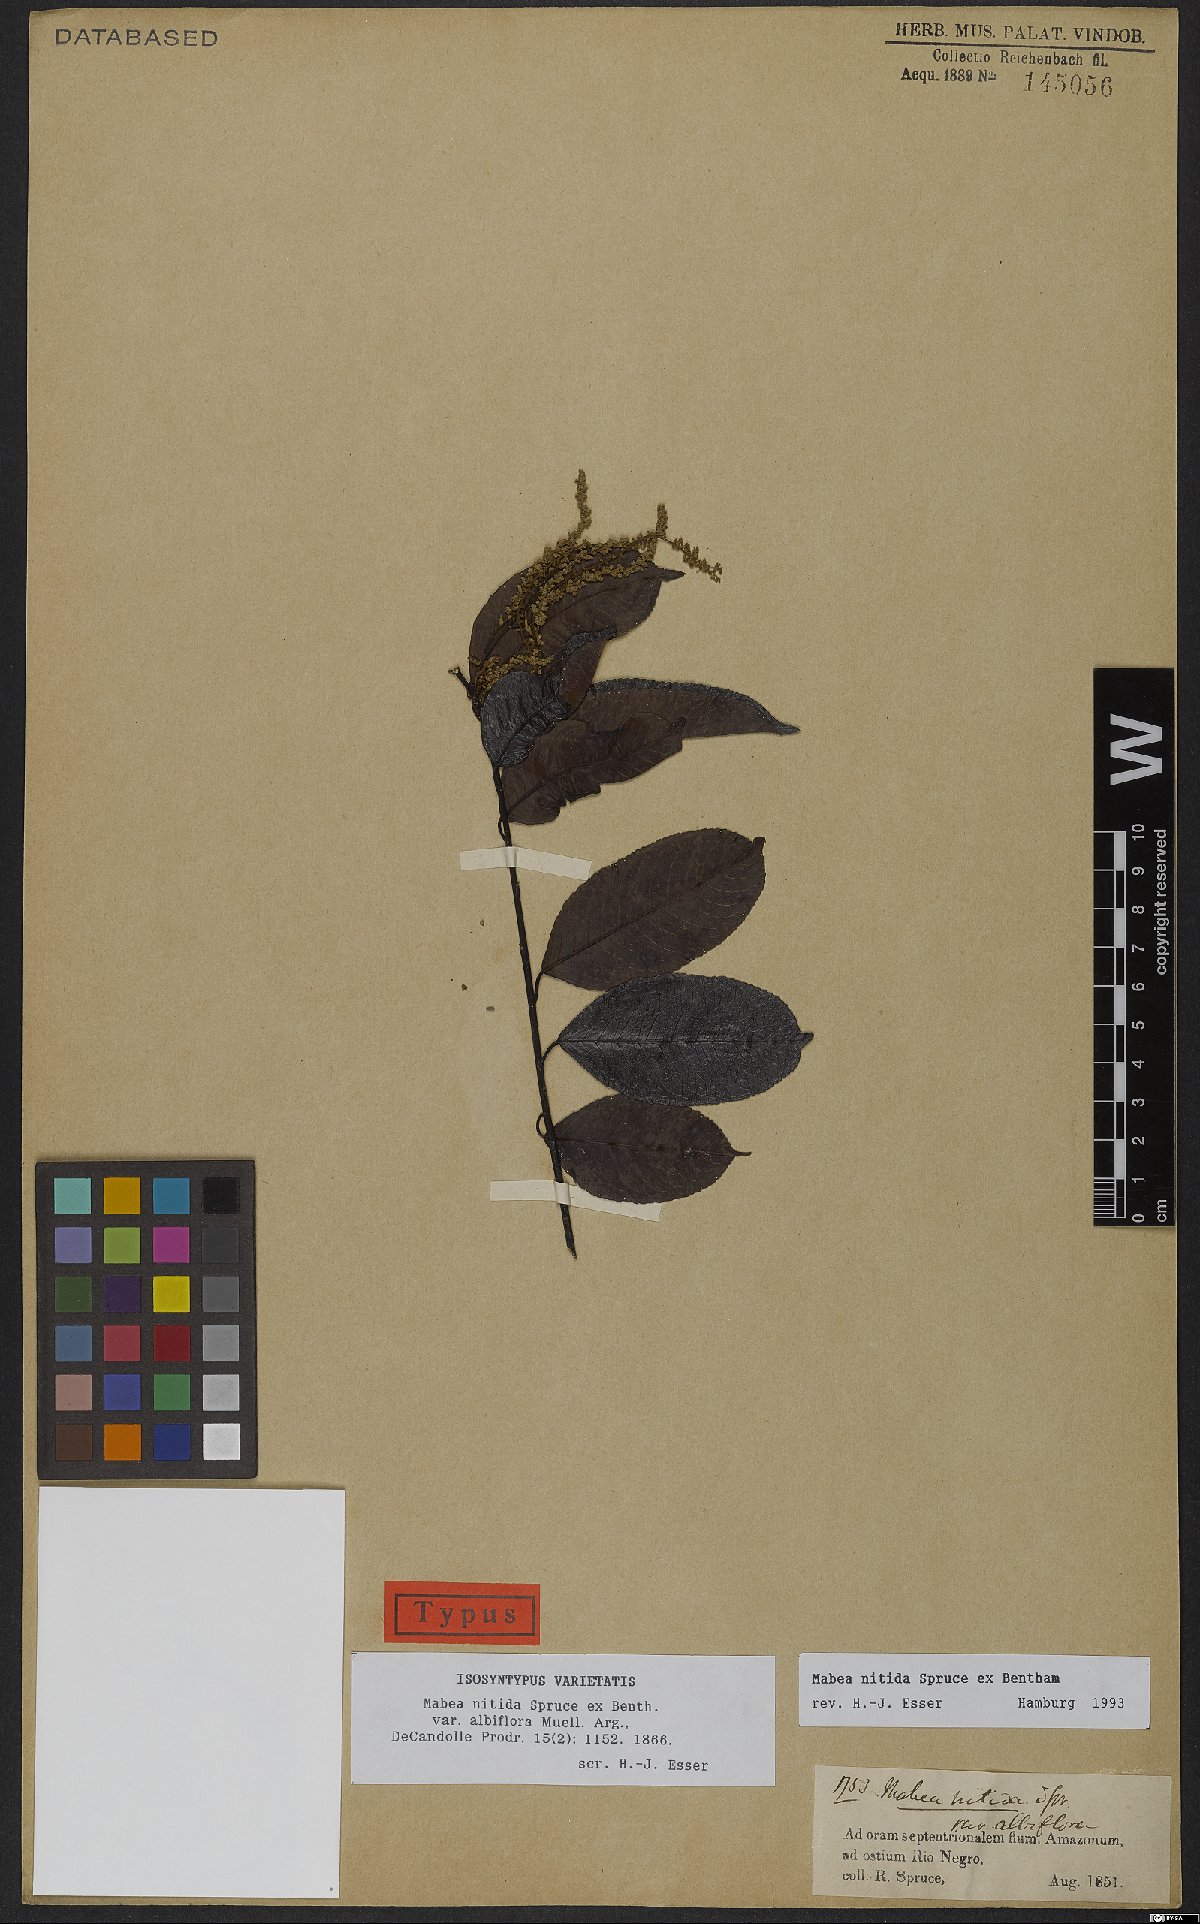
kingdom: Plantae
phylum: Tracheophyta
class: Magnoliopsida
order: Malpighiales
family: Euphorbiaceae
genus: Mabea
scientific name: Mabea nitida
